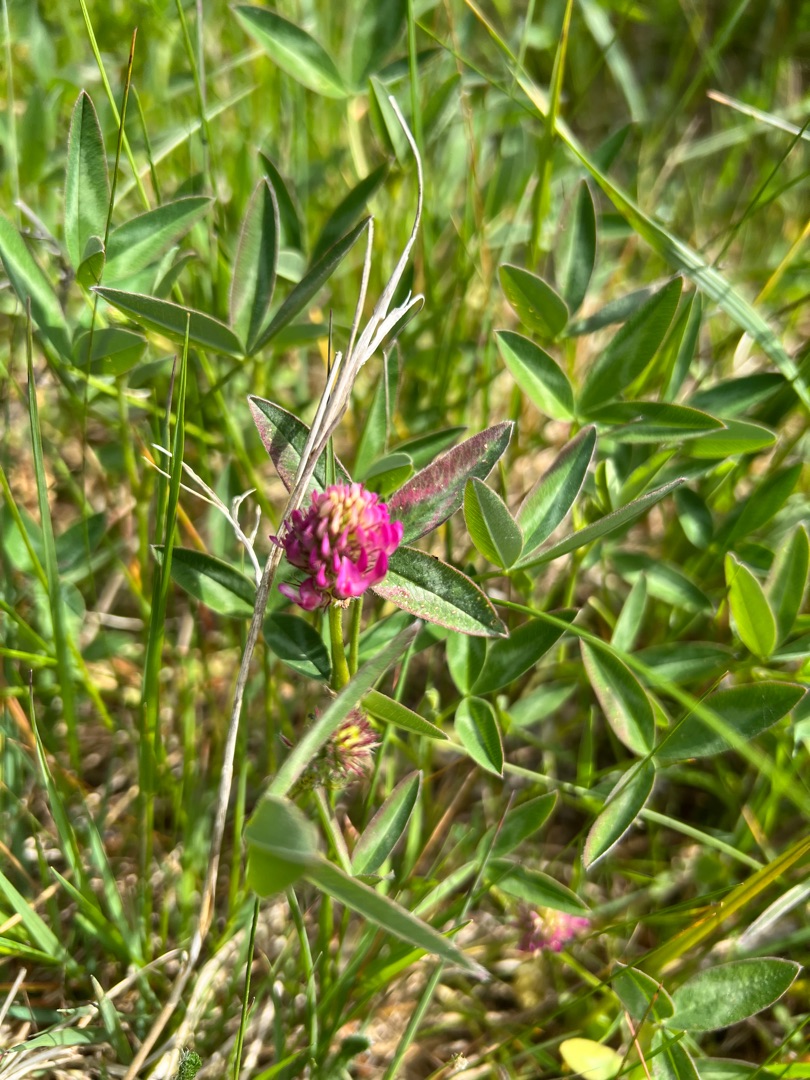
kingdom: Plantae
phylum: Tracheophyta
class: Magnoliopsida
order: Fabales
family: Fabaceae
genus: Trifolium
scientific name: Trifolium medium
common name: Bugtet kløver
